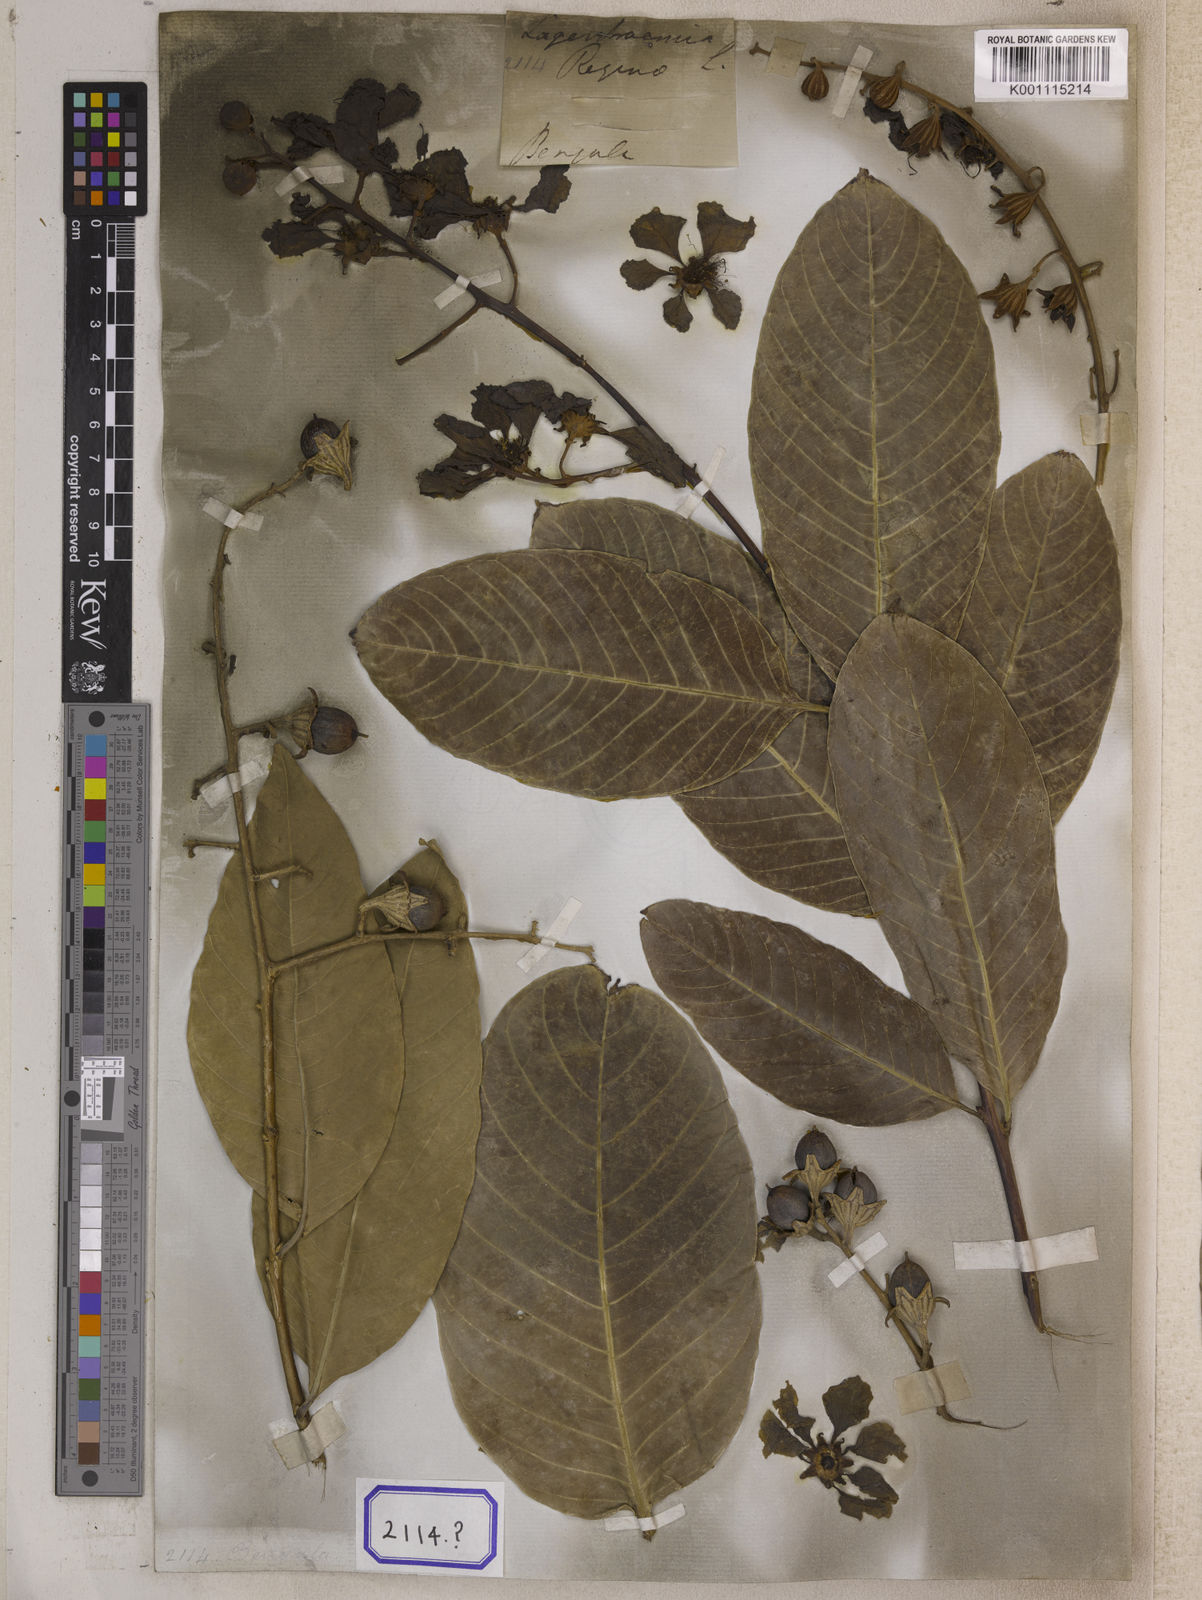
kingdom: Plantae
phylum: Tracheophyta
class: Magnoliopsida
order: Myrtales
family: Lythraceae
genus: Lagerstroemia
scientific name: Lagerstroemia
